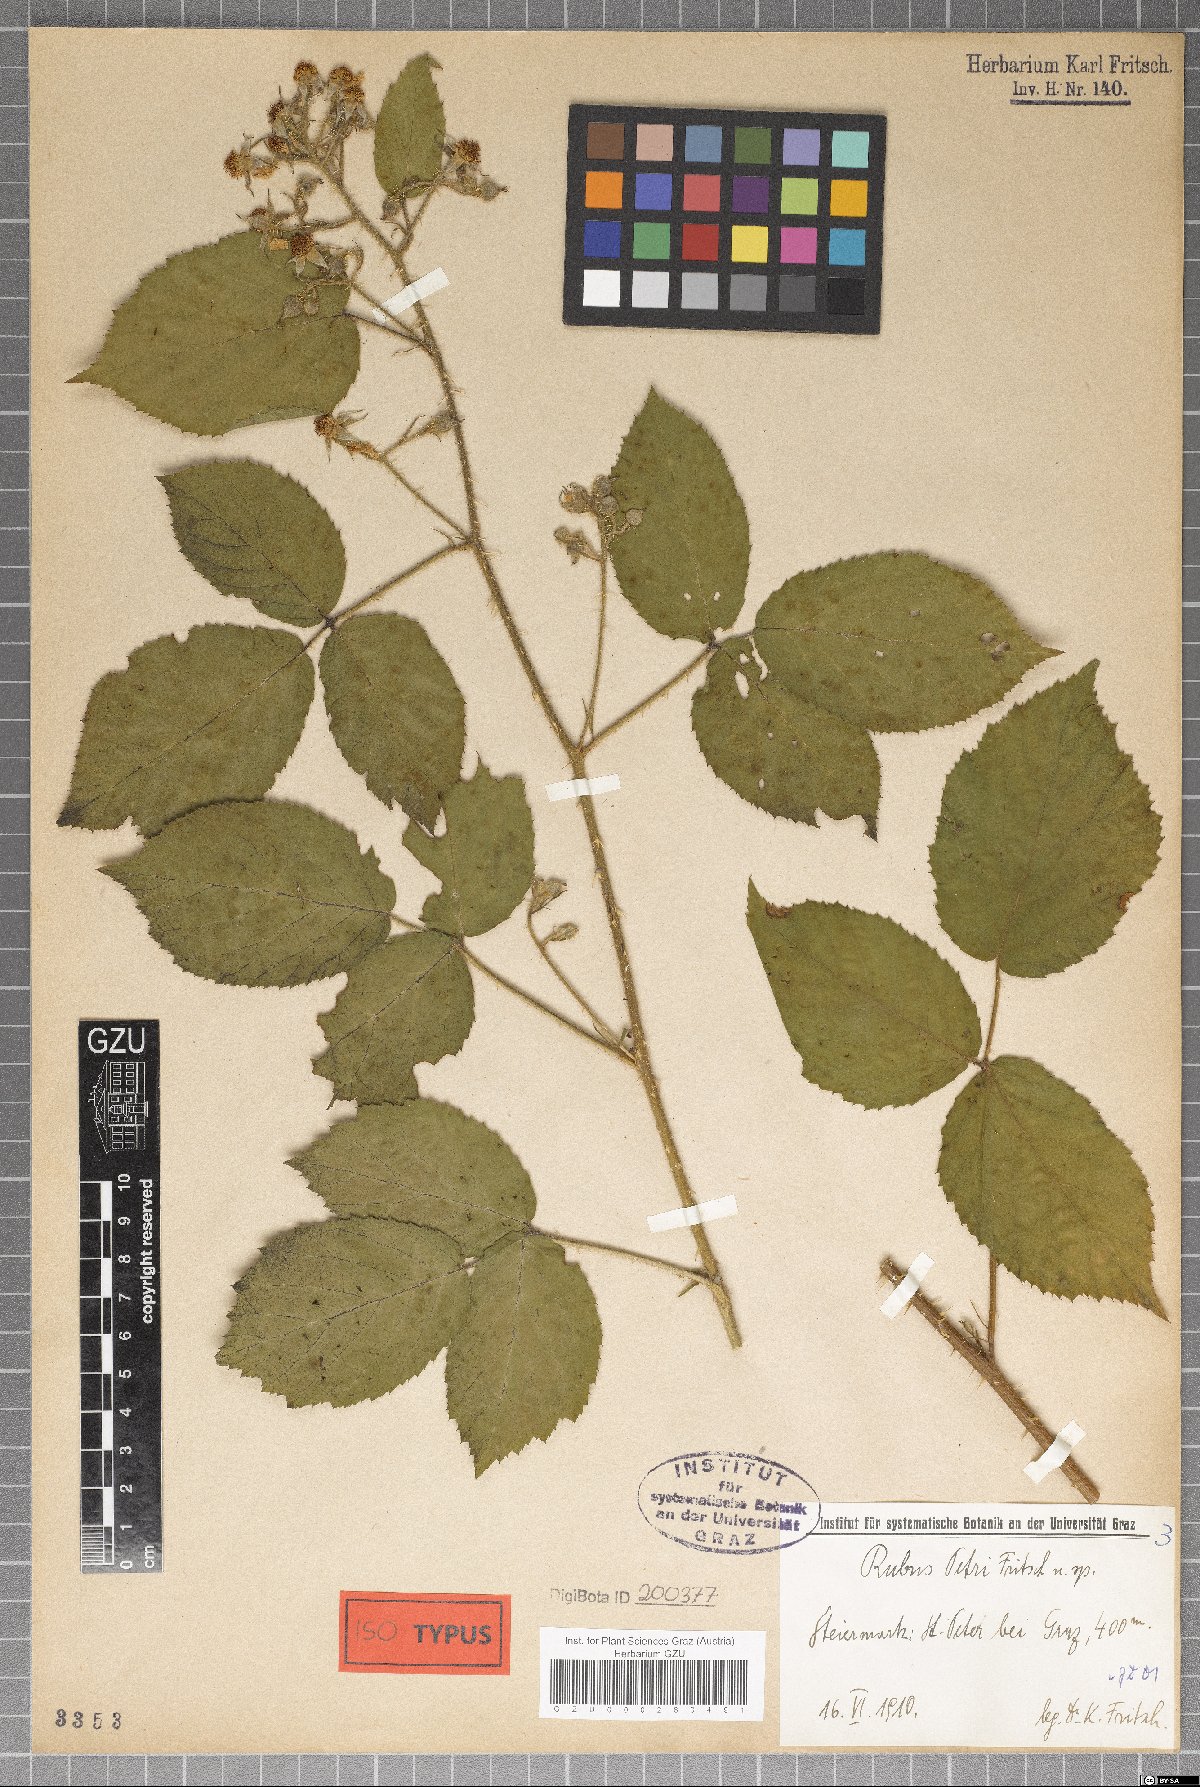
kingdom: Plantae
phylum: Tracheophyta
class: Magnoliopsida
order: Rosales
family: Rosaceae
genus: Rubus
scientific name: Rubus petri
